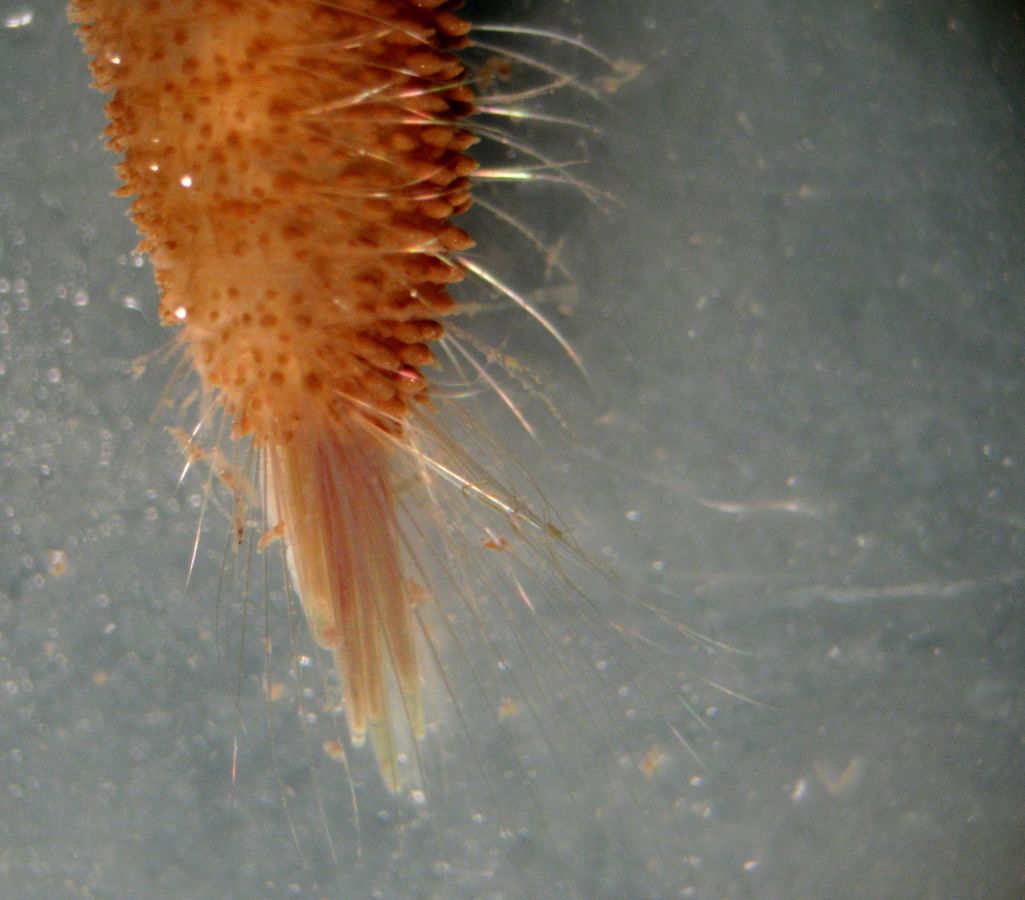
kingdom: Animalia
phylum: Annelida
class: Polychaeta
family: Flabelligeridae
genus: Saphobranchia
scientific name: Saphobranchia hirsuta
